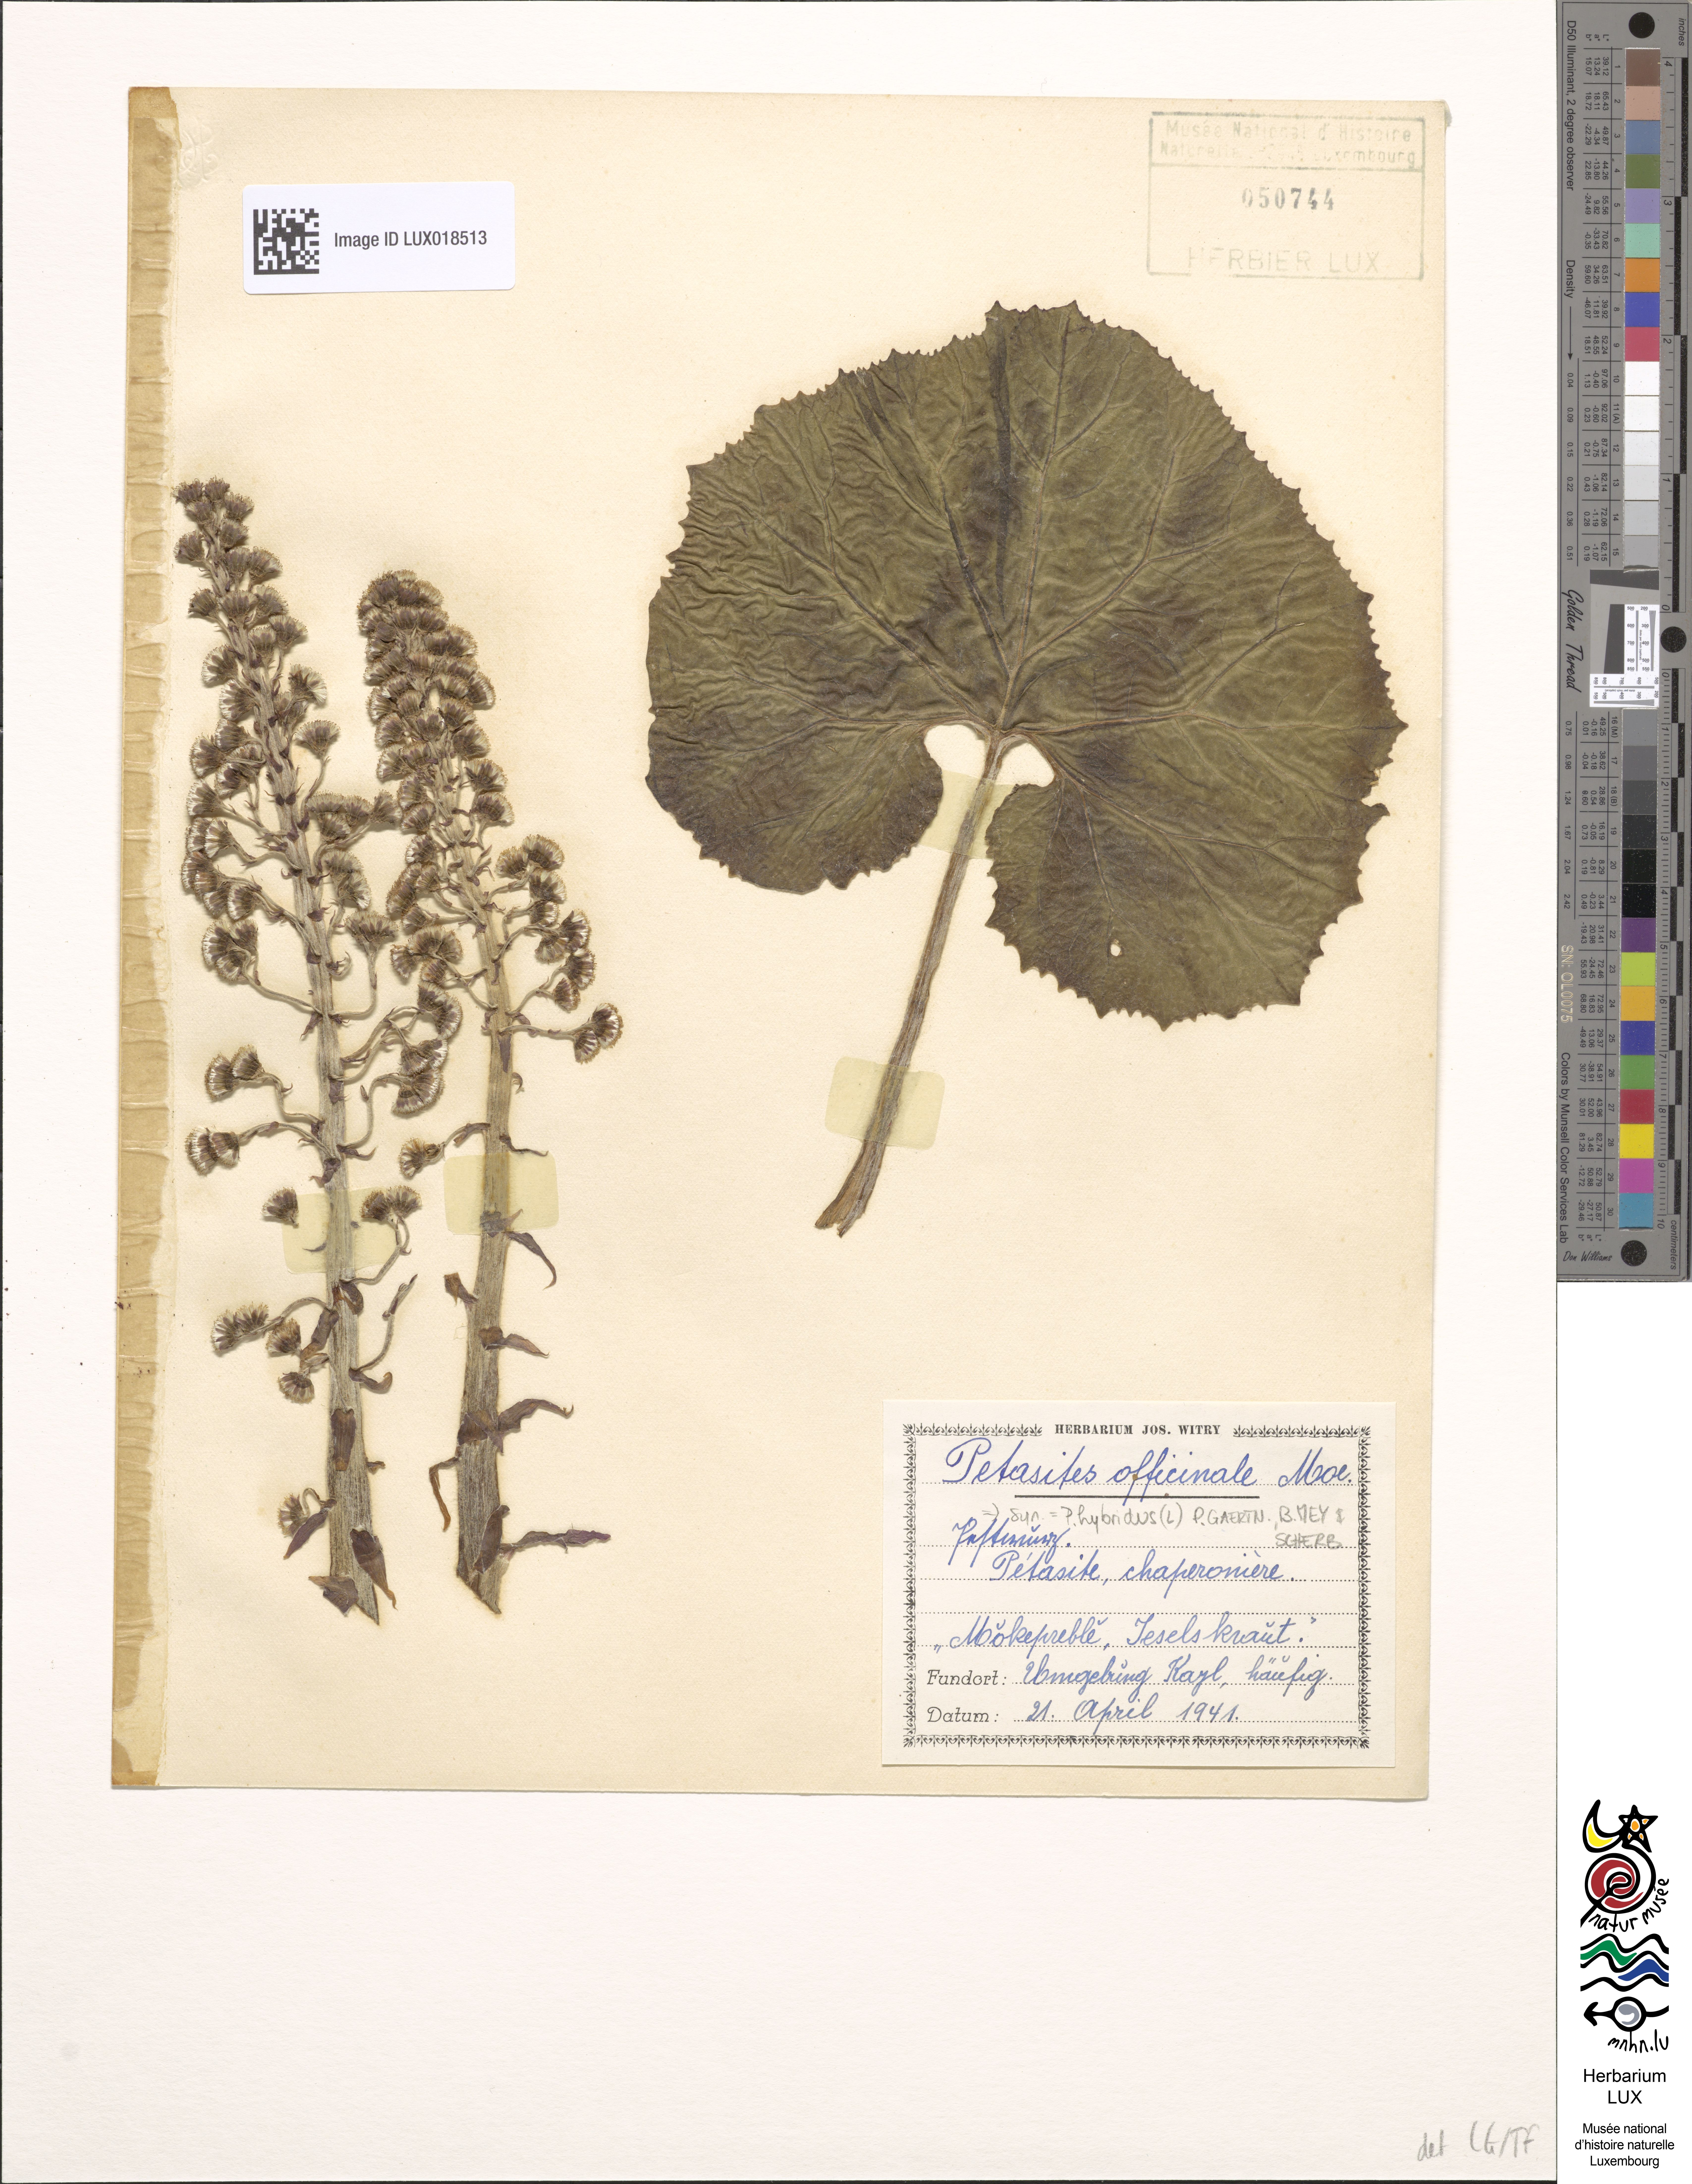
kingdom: Plantae
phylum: Tracheophyta
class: Magnoliopsida
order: Asterales
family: Asteraceae
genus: Petasites
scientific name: Petasites hybridus
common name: Butterbur
